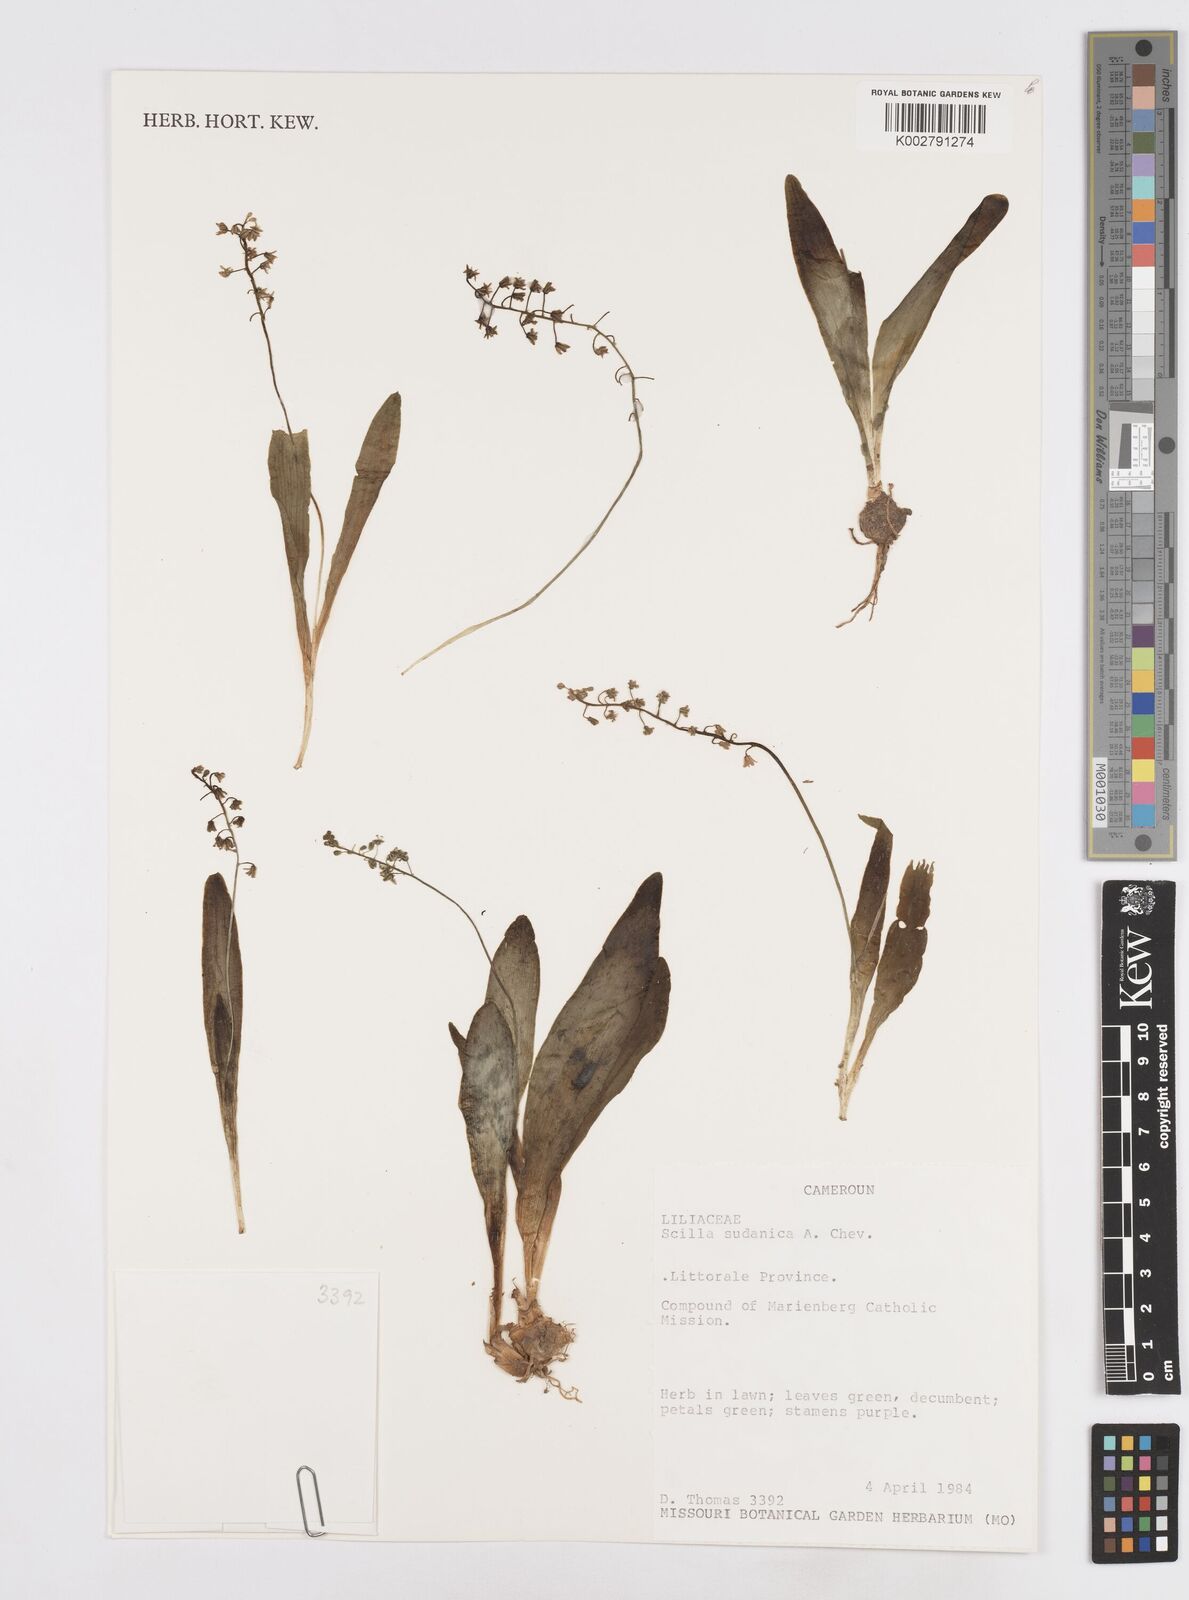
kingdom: Plantae
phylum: Tracheophyta
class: Liliopsida
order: Asparagales
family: Asparagaceae
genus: Ledebouria
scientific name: Ledebouria sudanica
